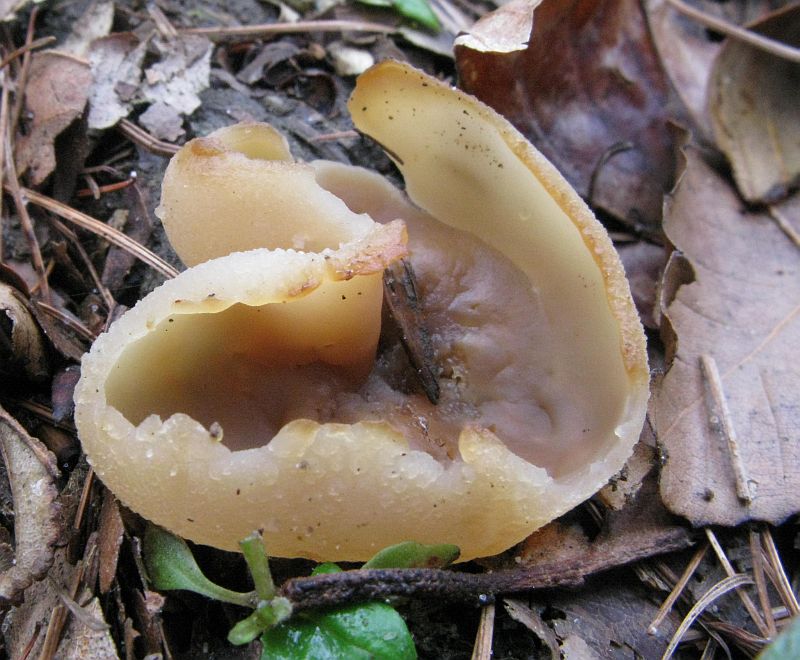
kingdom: Fungi
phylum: Ascomycota
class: Pezizomycetes
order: Pezizales
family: Pezizaceae
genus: Peziza
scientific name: Peziza varia
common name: Ved-bægersvamp
